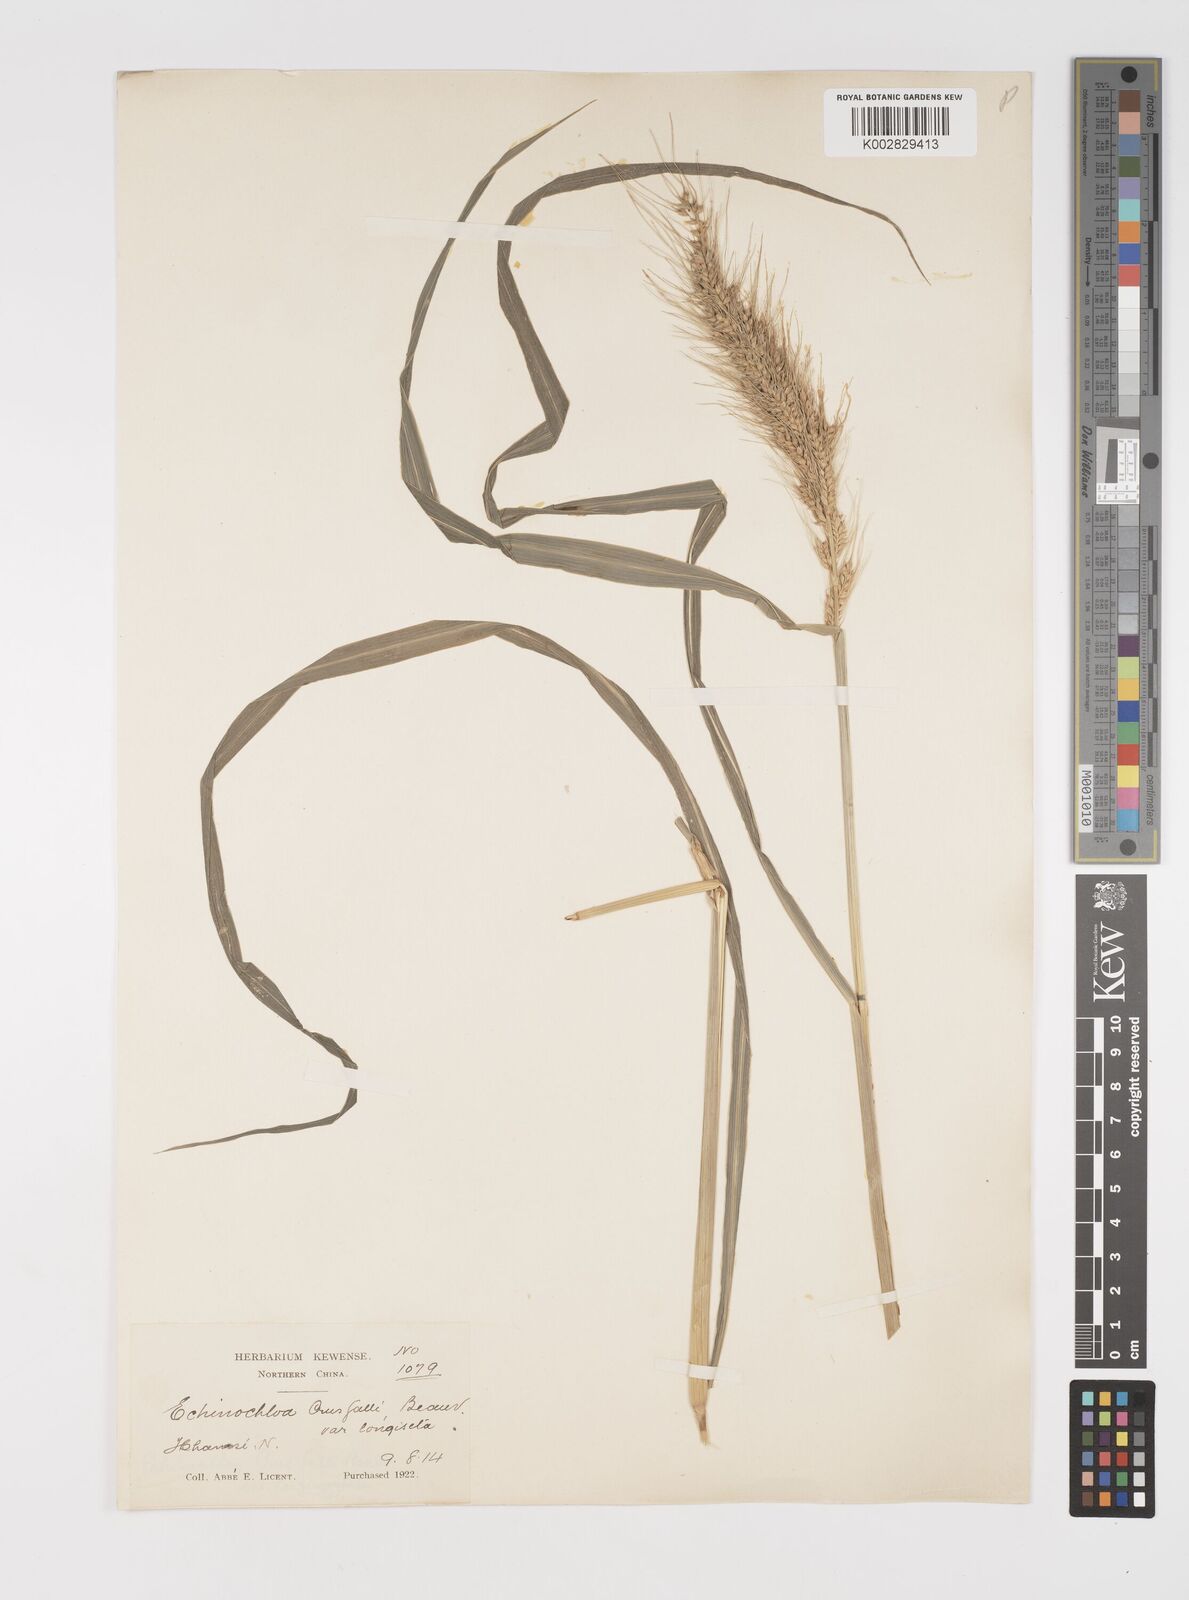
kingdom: Plantae
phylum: Tracheophyta
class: Liliopsida
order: Poales
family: Poaceae
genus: Echinochloa
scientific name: Echinochloa crus-galli
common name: Cockspur
